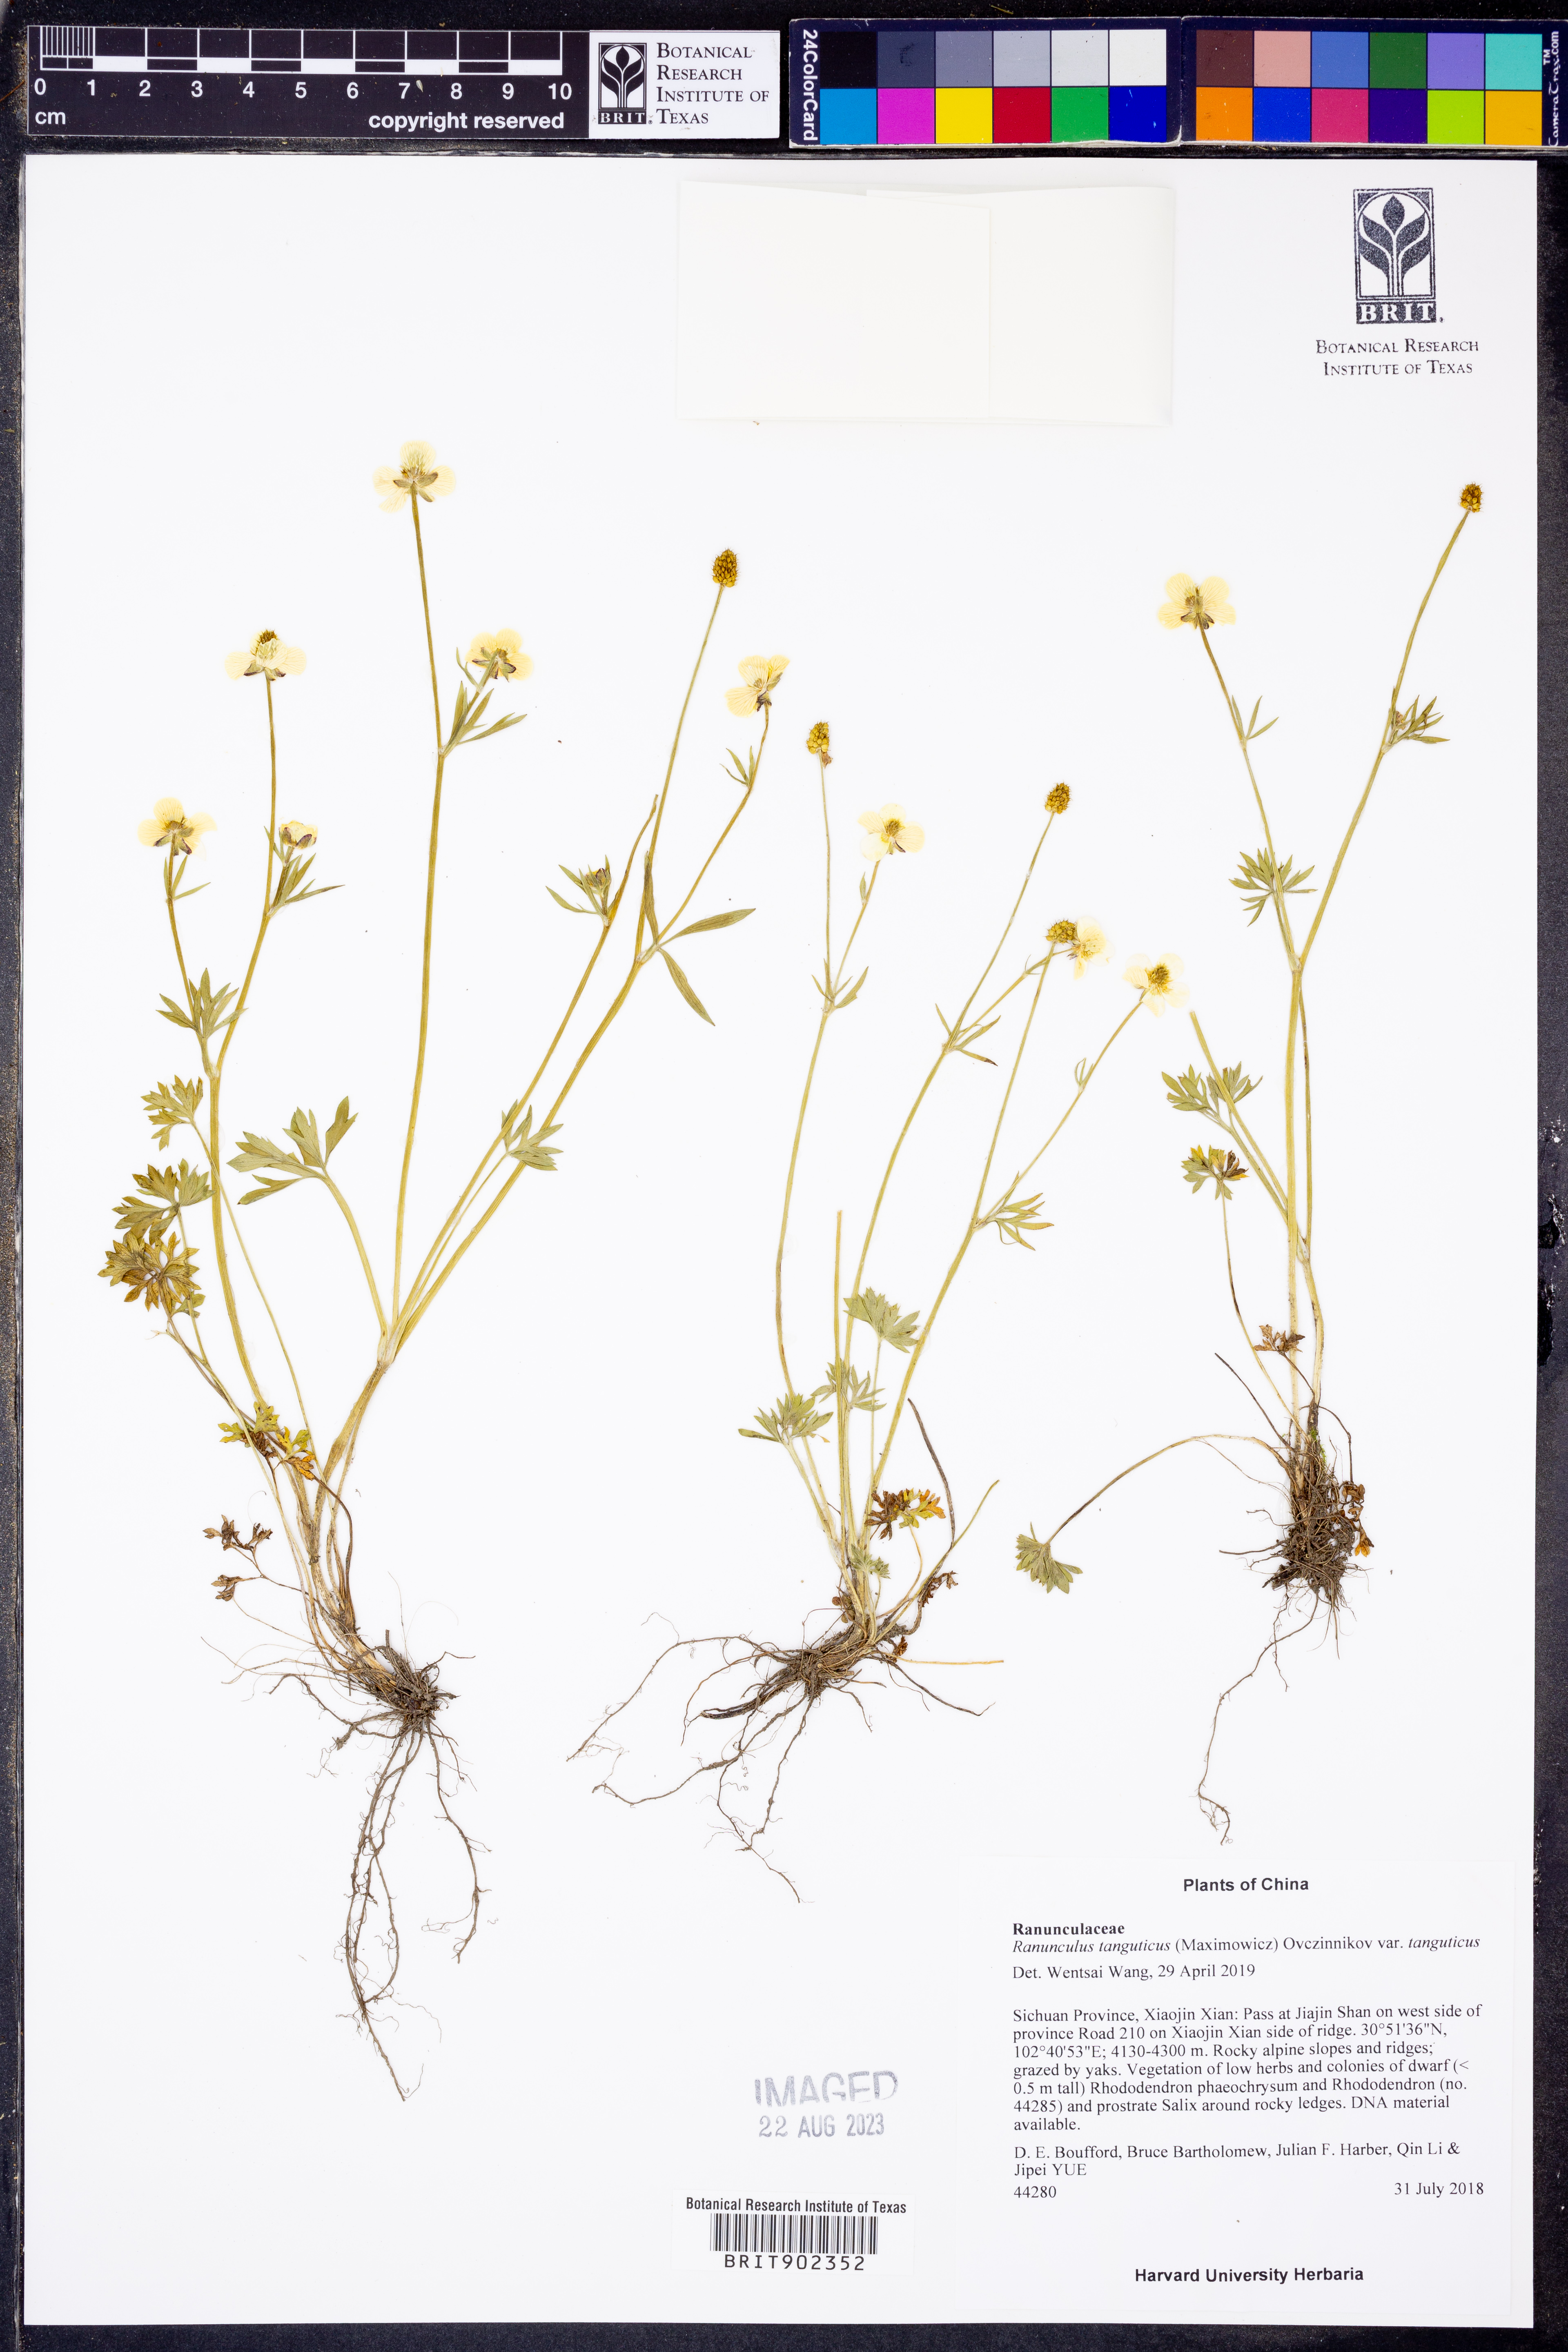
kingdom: Plantae
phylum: Tracheophyta
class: Magnoliopsida
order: Ranunculales
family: Ranunculaceae
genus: Ranunculus
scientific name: Ranunculus brotherusii
